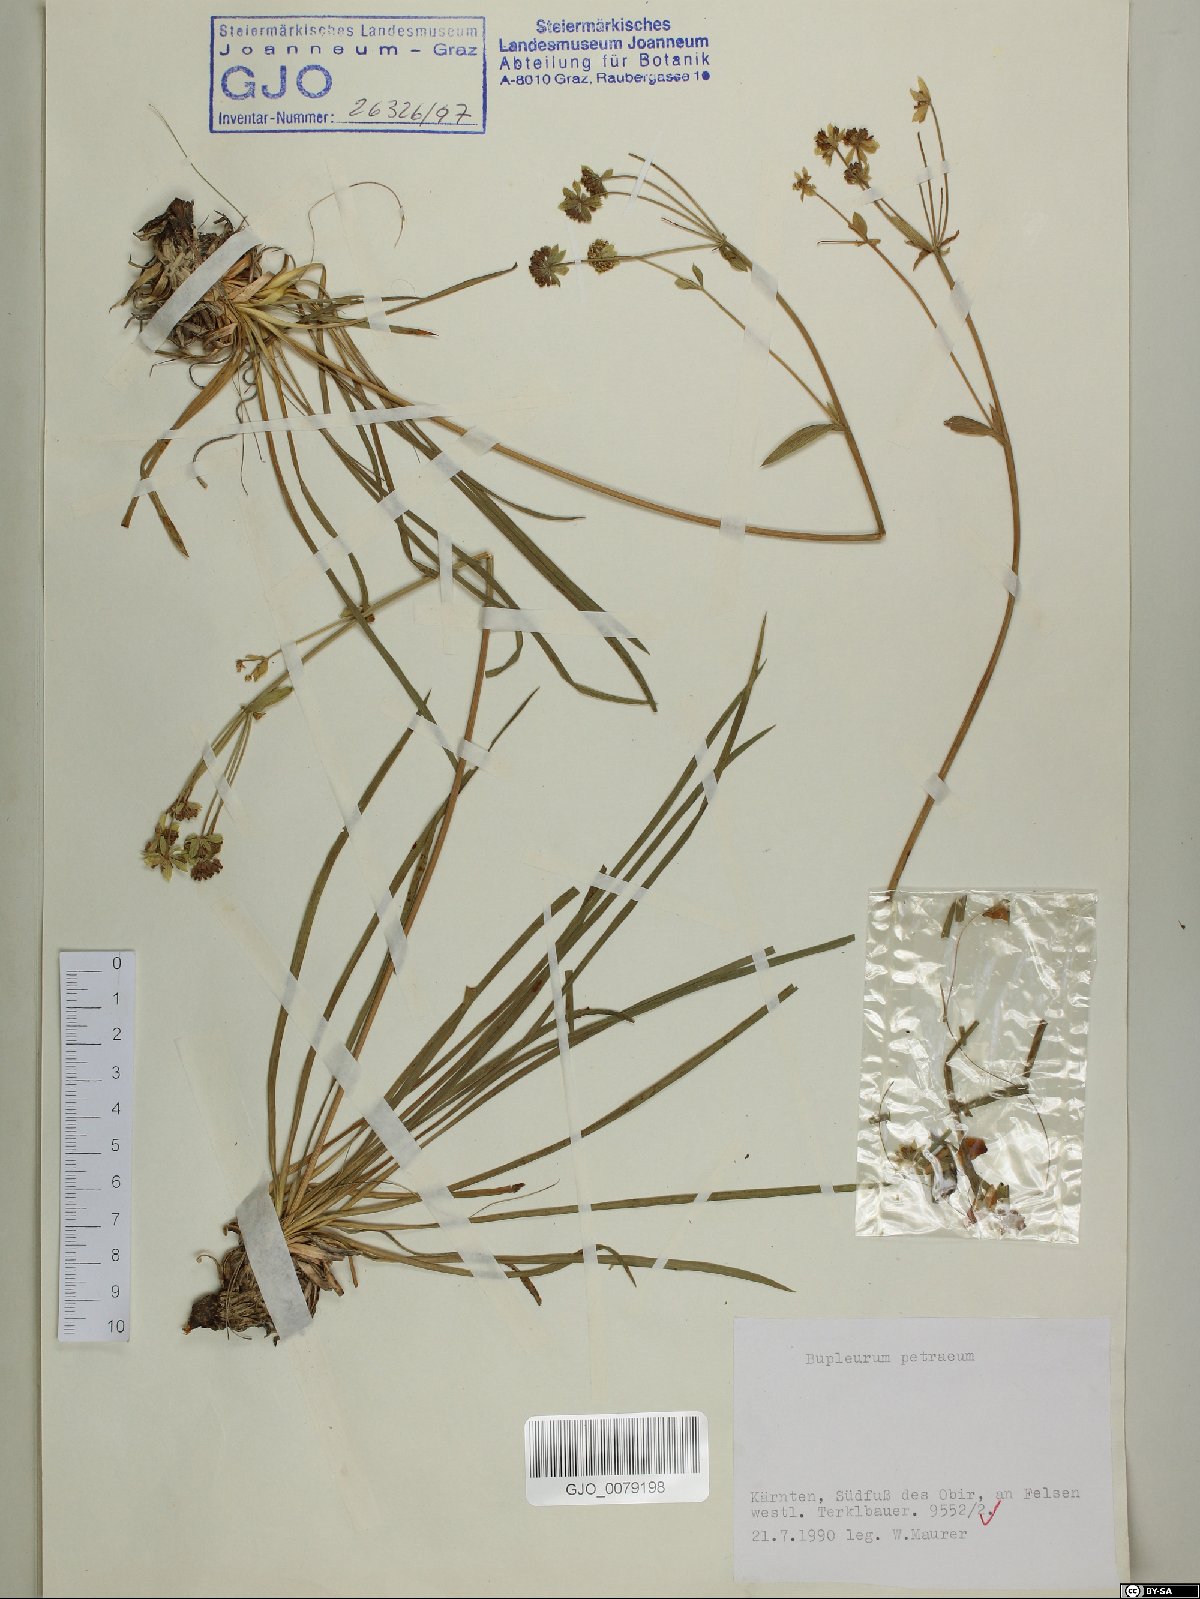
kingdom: Plantae
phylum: Tracheophyta
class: Magnoliopsida
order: Apiales
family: Apiaceae
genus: Bupleurum
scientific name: Bupleurum petraeum
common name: Rock hare's-ear
